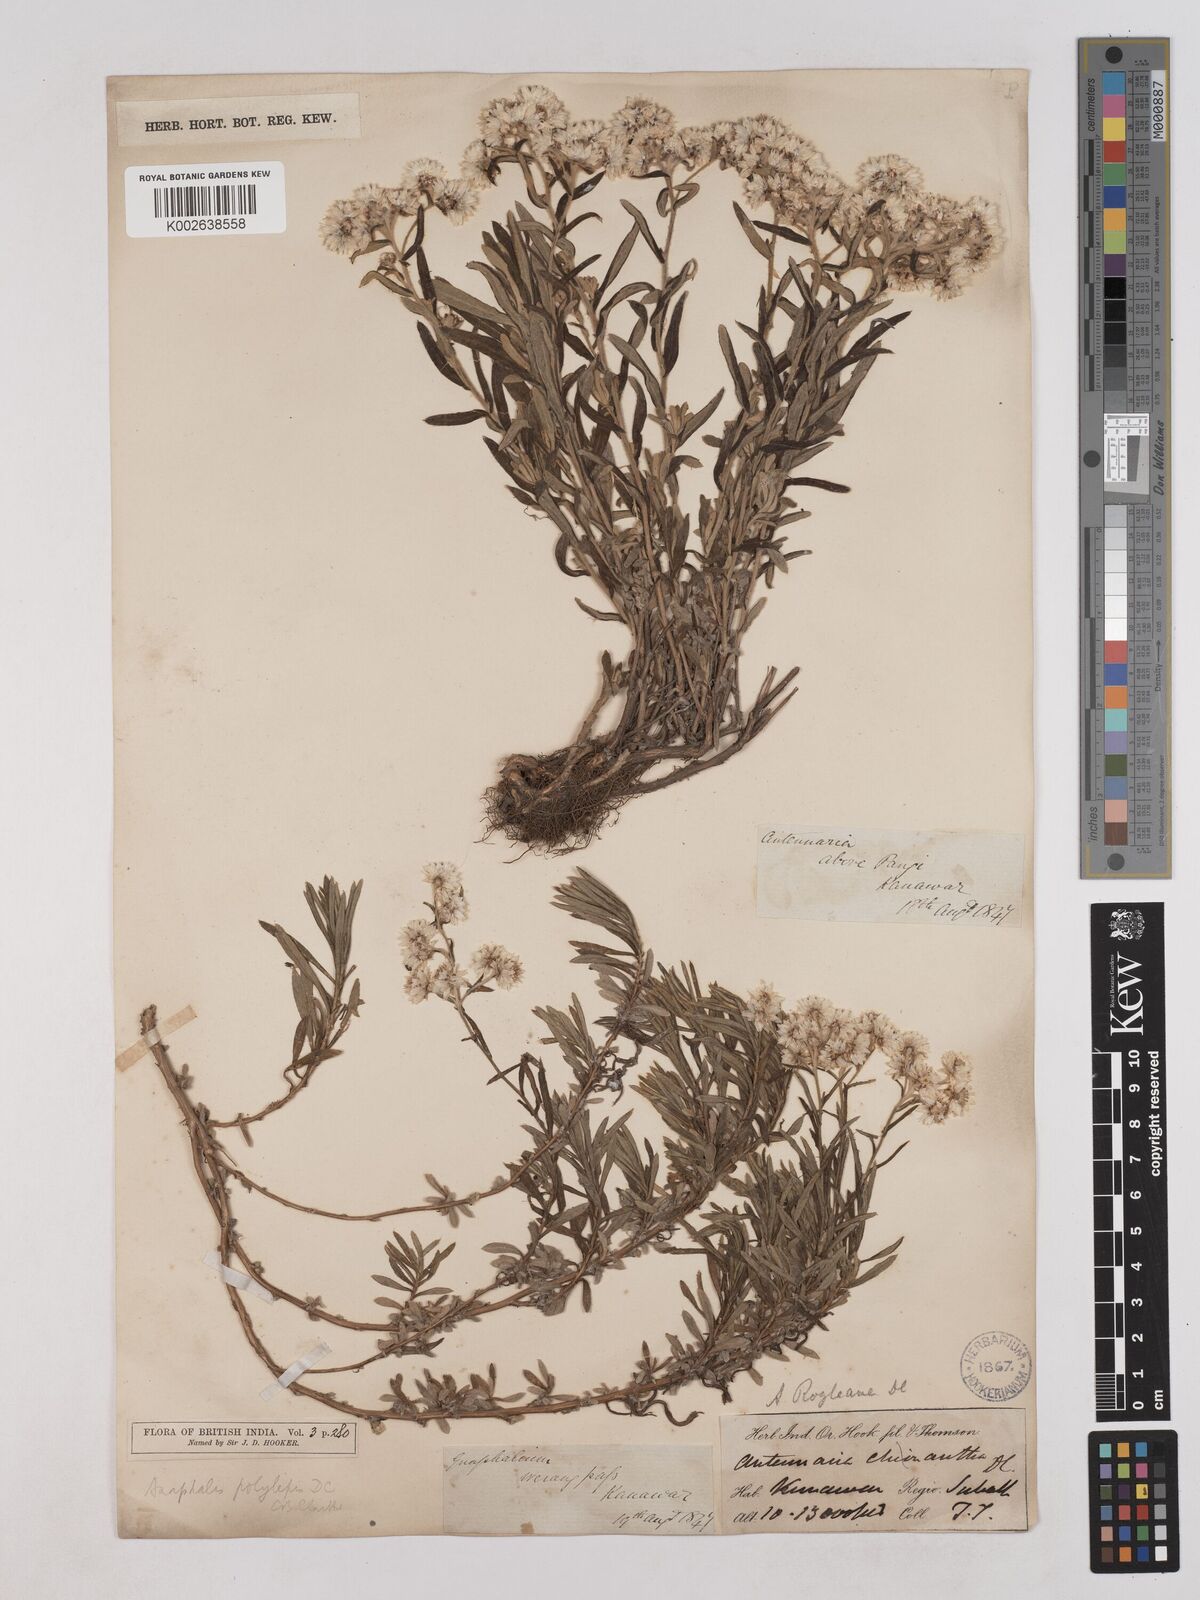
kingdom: Plantae
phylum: Tracheophyta
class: Magnoliopsida
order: Asterales
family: Asteraceae
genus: Anaphalis
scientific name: Anaphalis royleana
